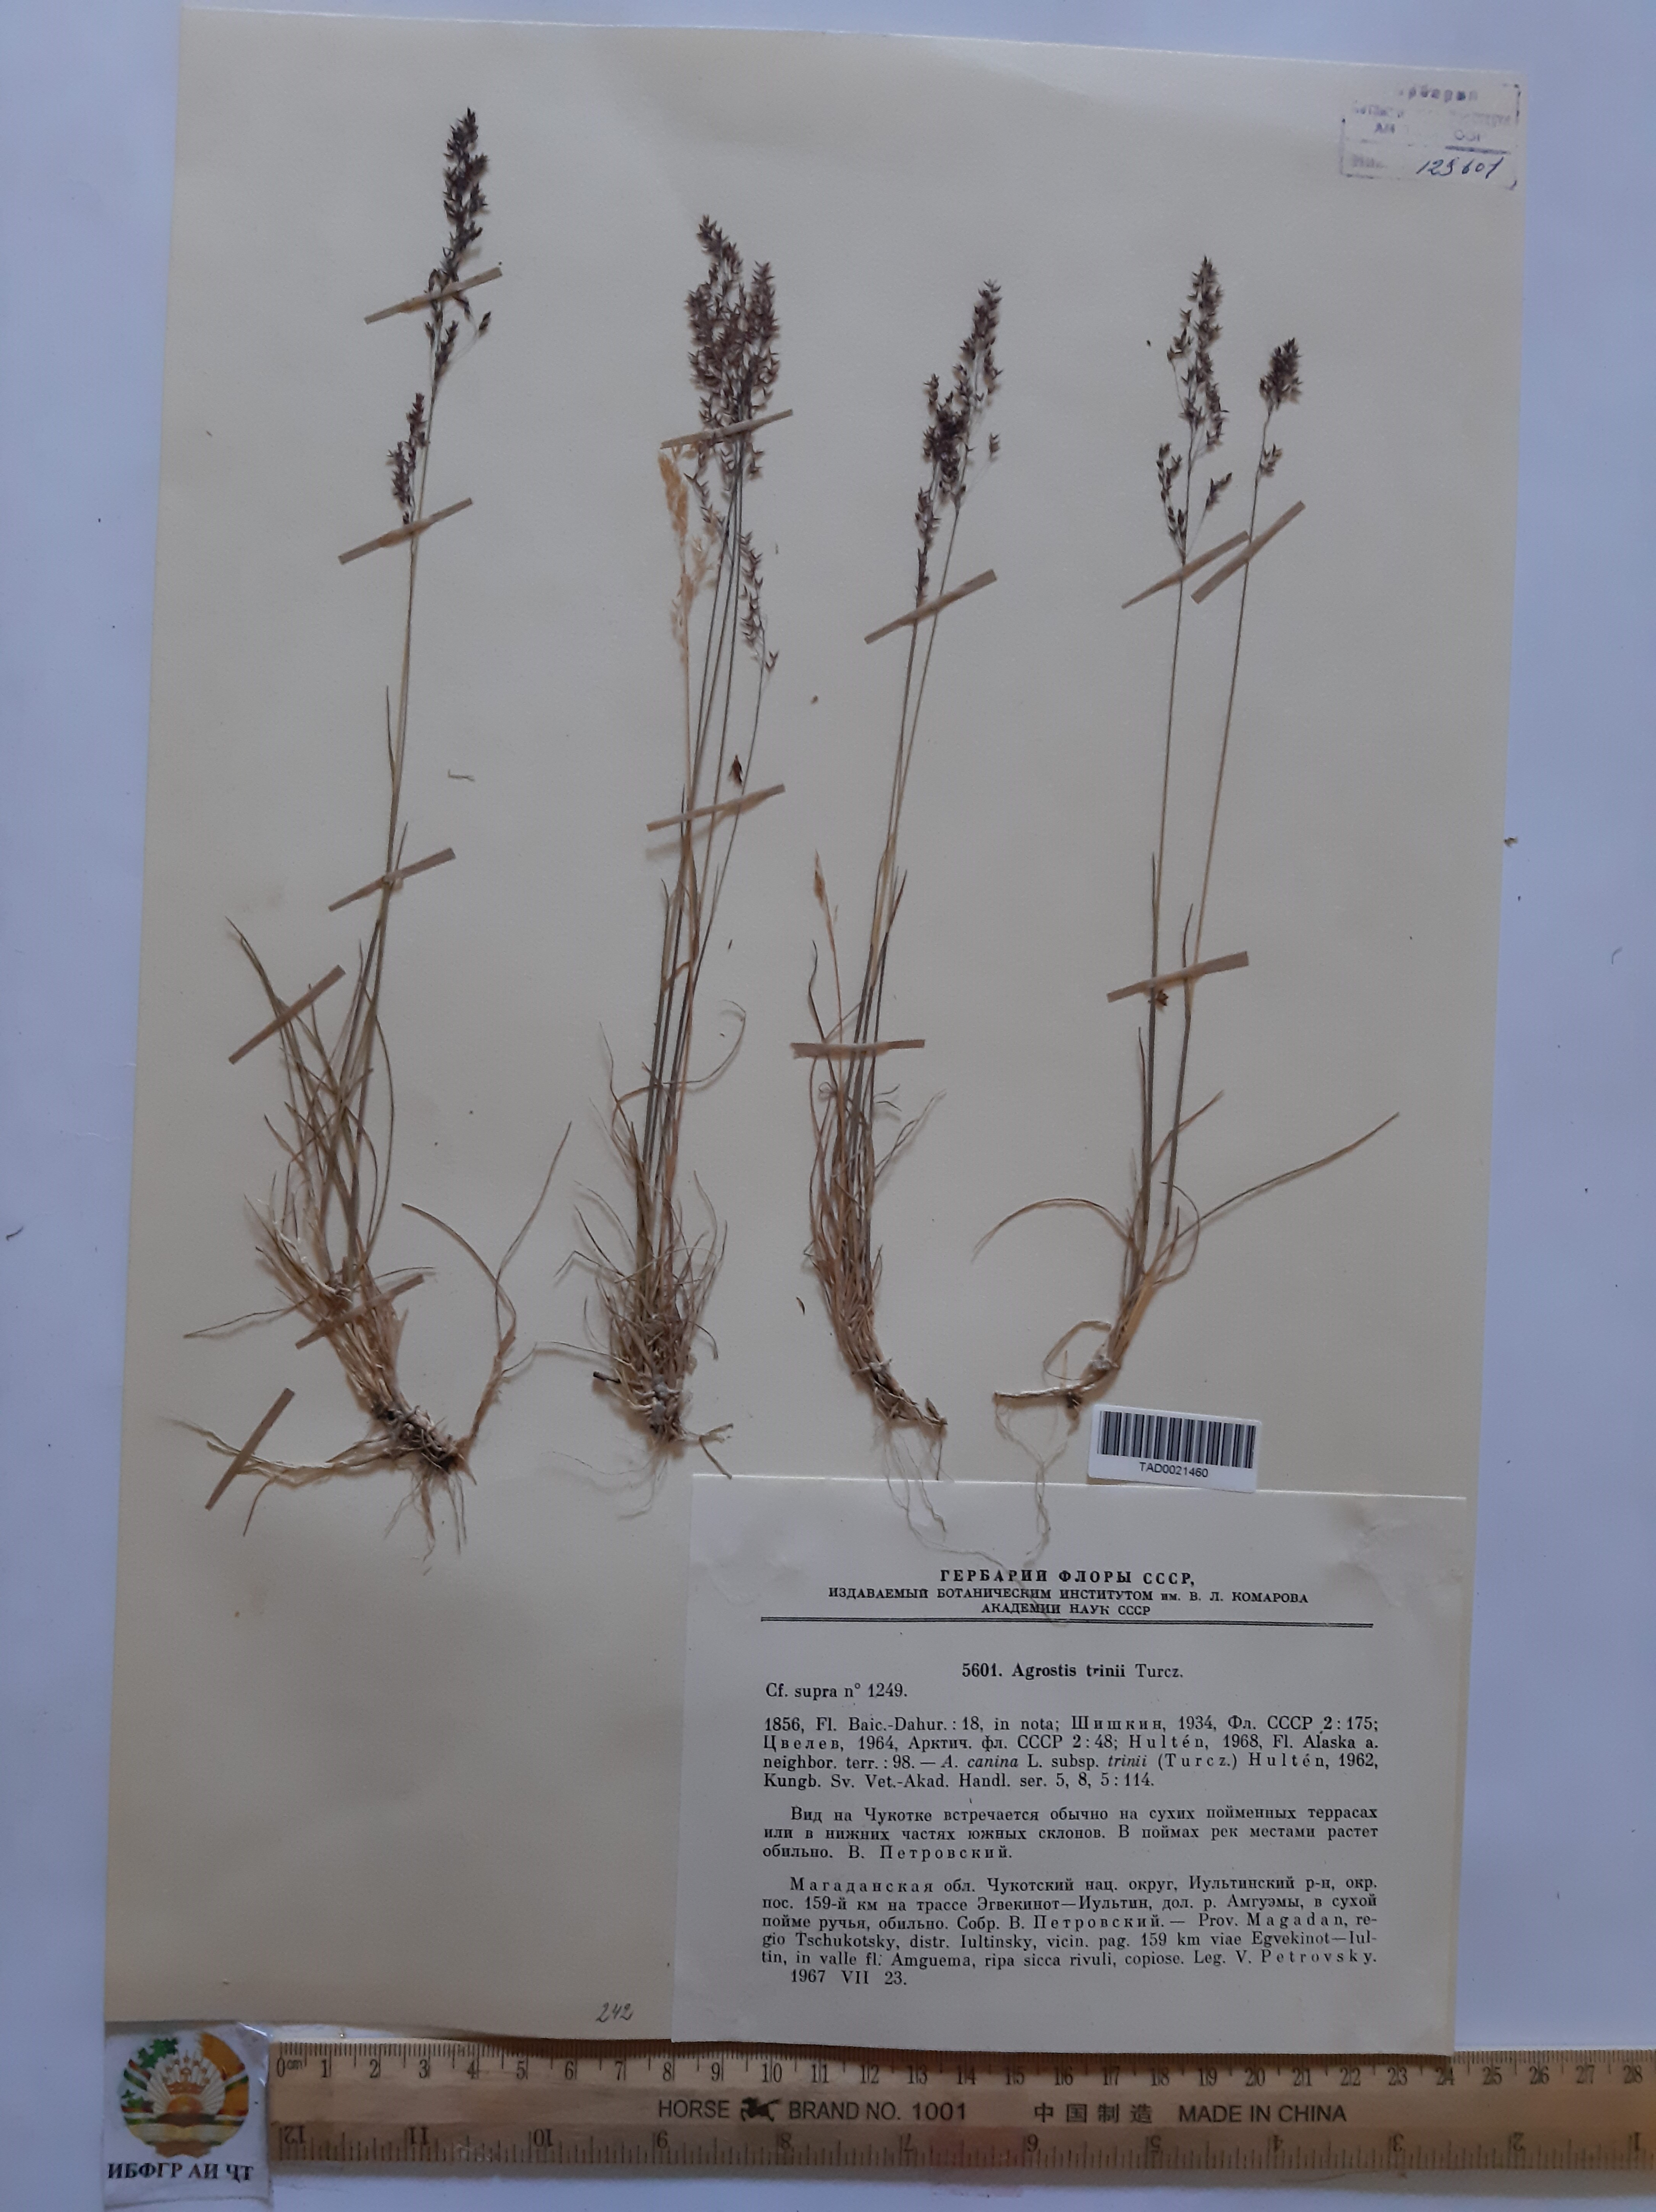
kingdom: Plantae
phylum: Tracheophyta
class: Liliopsida
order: Poales
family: Poaceae
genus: Agrostis
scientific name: Agrostis vinealis
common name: Brown bent
